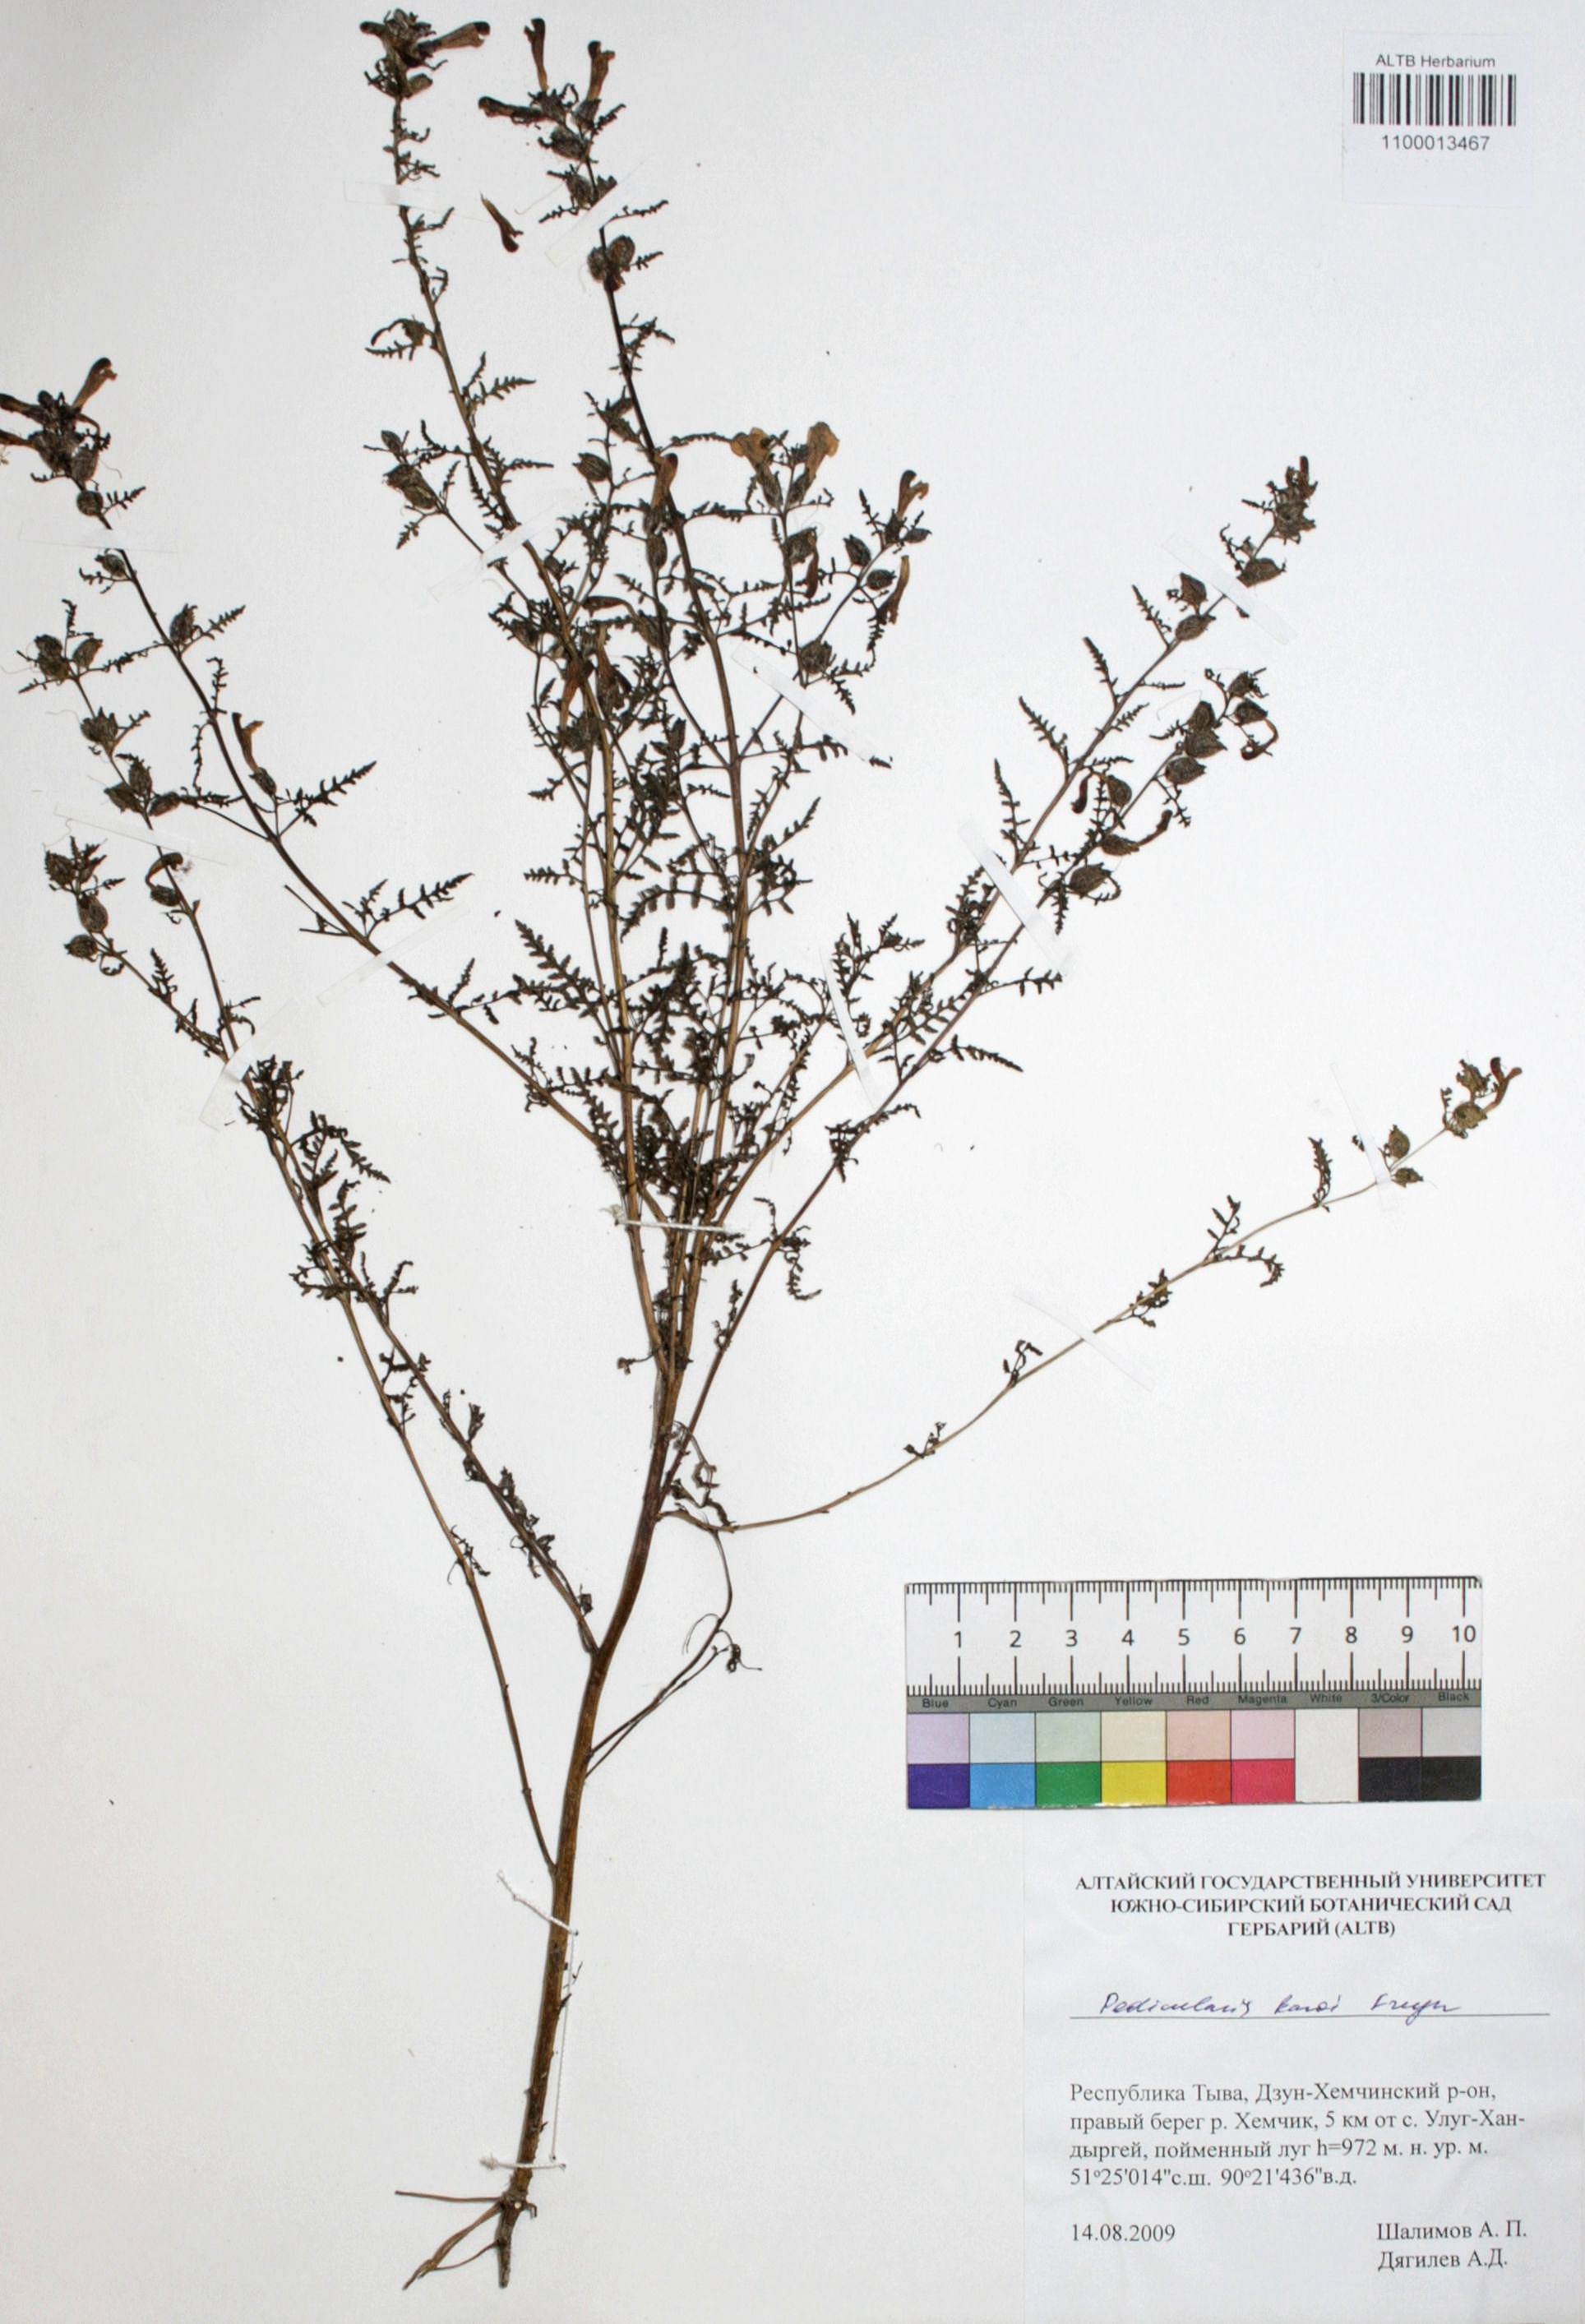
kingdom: Plantae
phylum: Tracheophyta
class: Magnoliopsida
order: Lamiales
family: Orobanchaceae
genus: Pedicularis
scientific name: Pedicularis karoi
